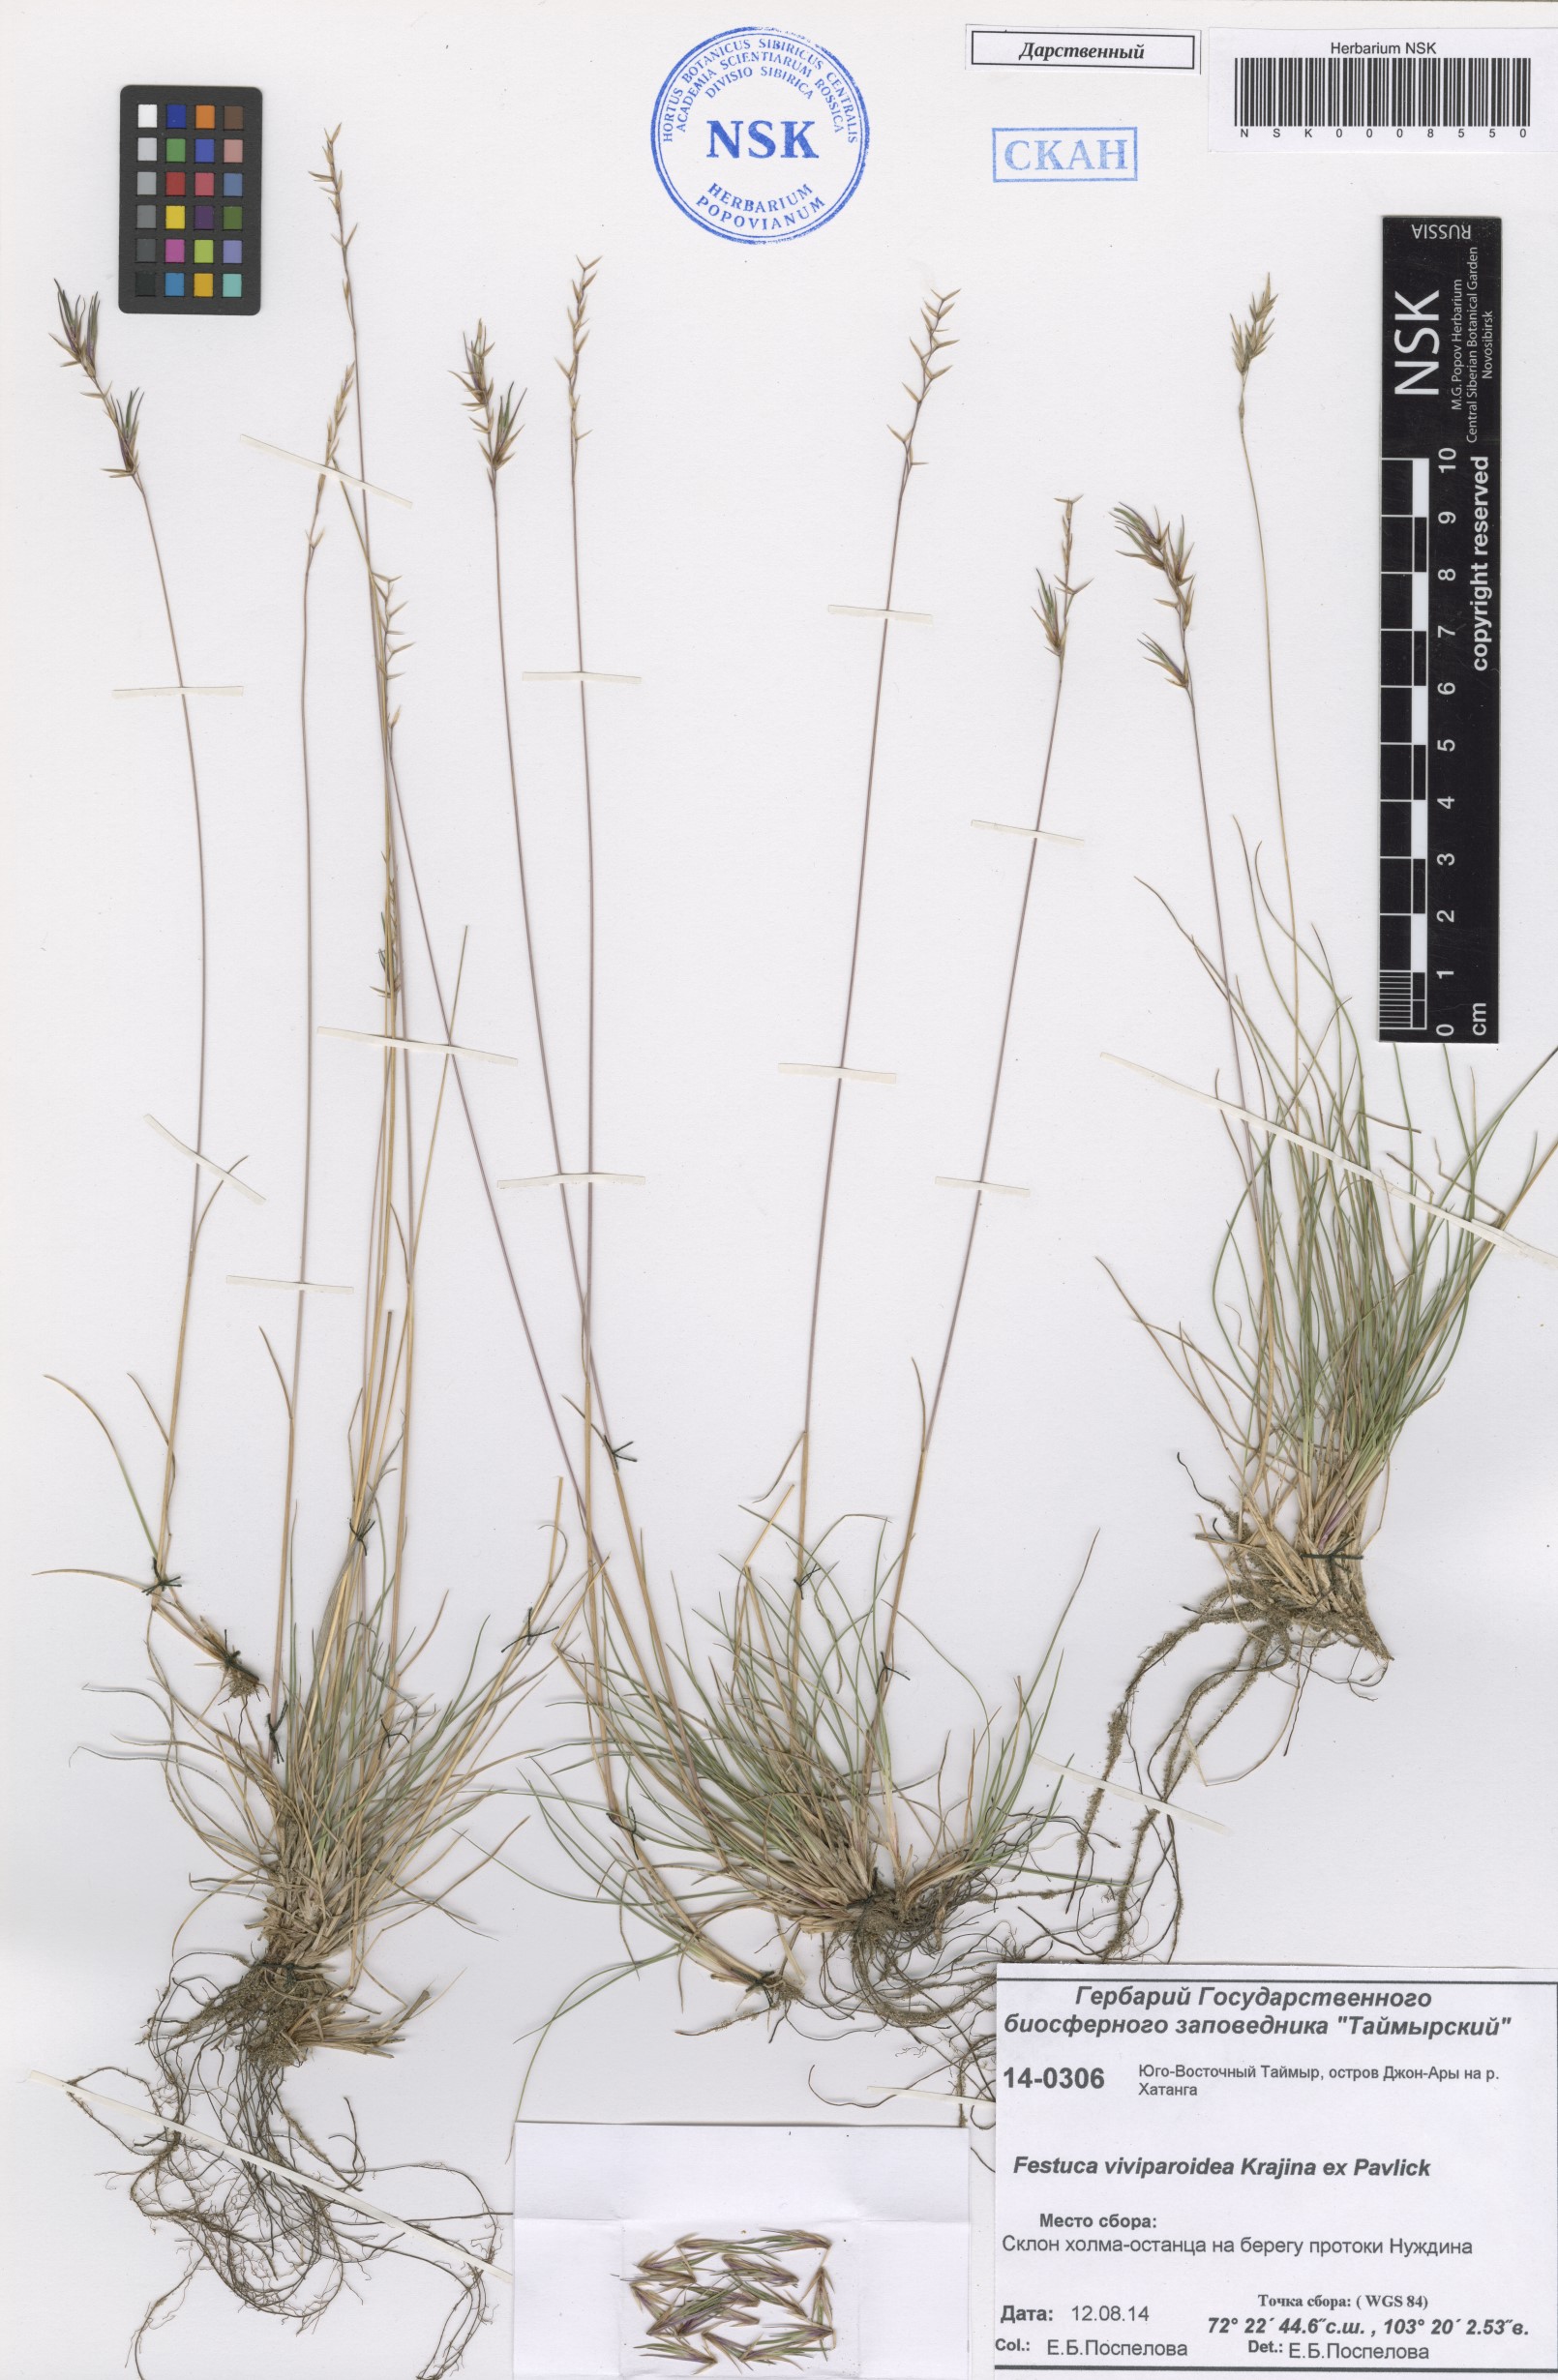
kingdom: Plantae
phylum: Tracheophyta
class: Liliopsida
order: Poales
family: Poaceae
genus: Festuca
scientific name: Festuca viviparoidea
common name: Northern fescue
